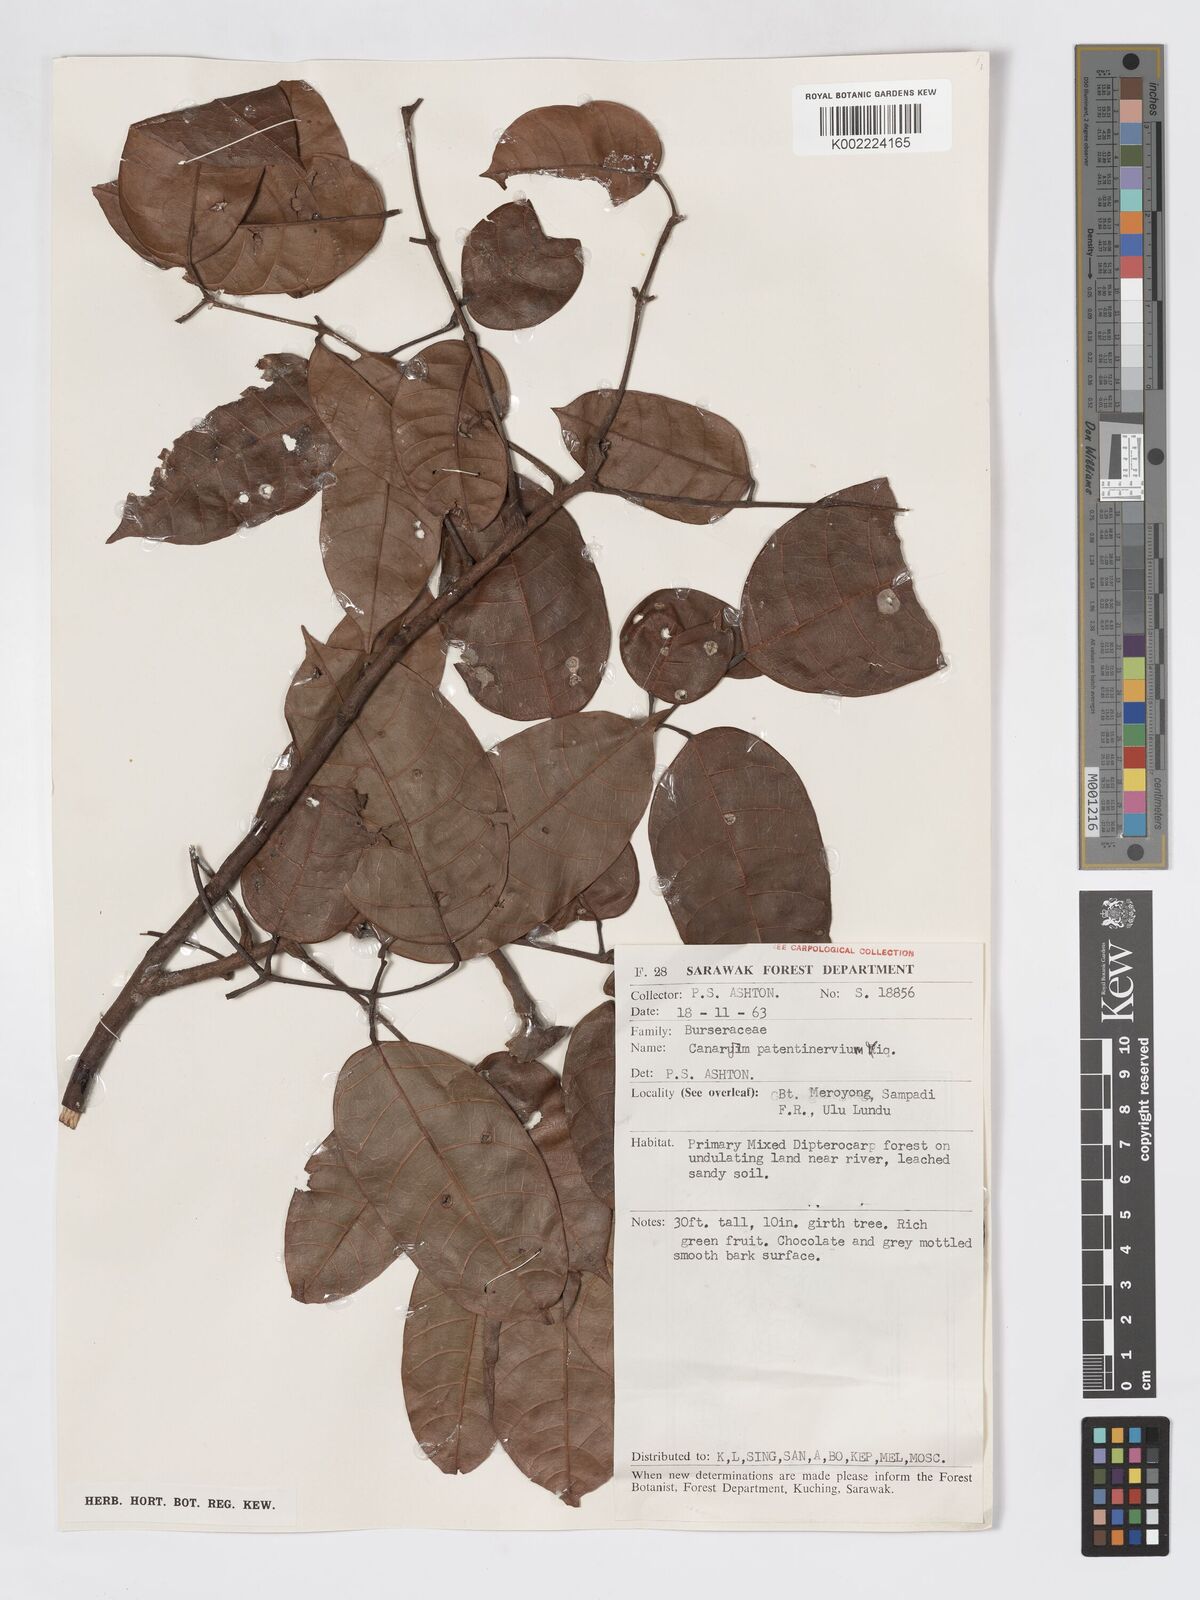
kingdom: Plantae
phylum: Tracheophyta
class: Magnoliopsida
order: Sapindales
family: Burseraceae
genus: Canarium
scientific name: Canarium patentinervium
